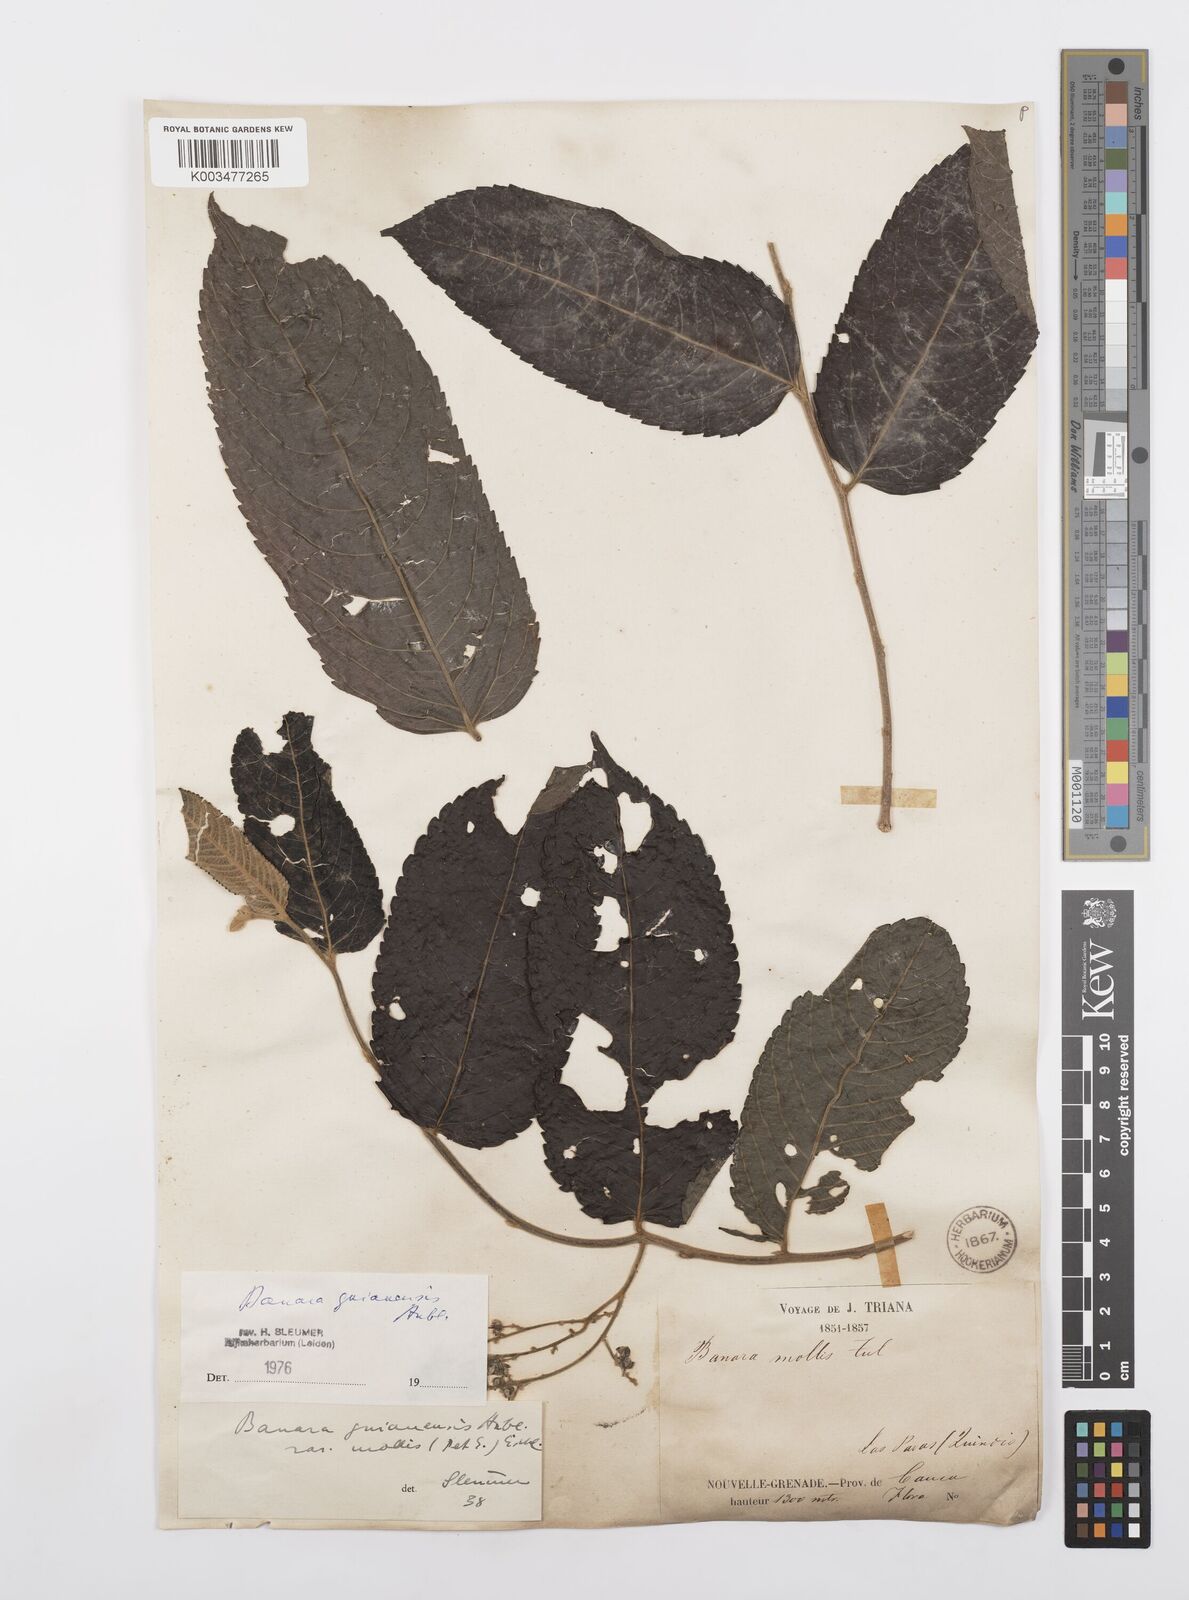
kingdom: Plantae
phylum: Tracheophyta
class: Magnoliopsida
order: Malpighiales
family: Salicaceae
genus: Banara
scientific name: Banara guianensis
